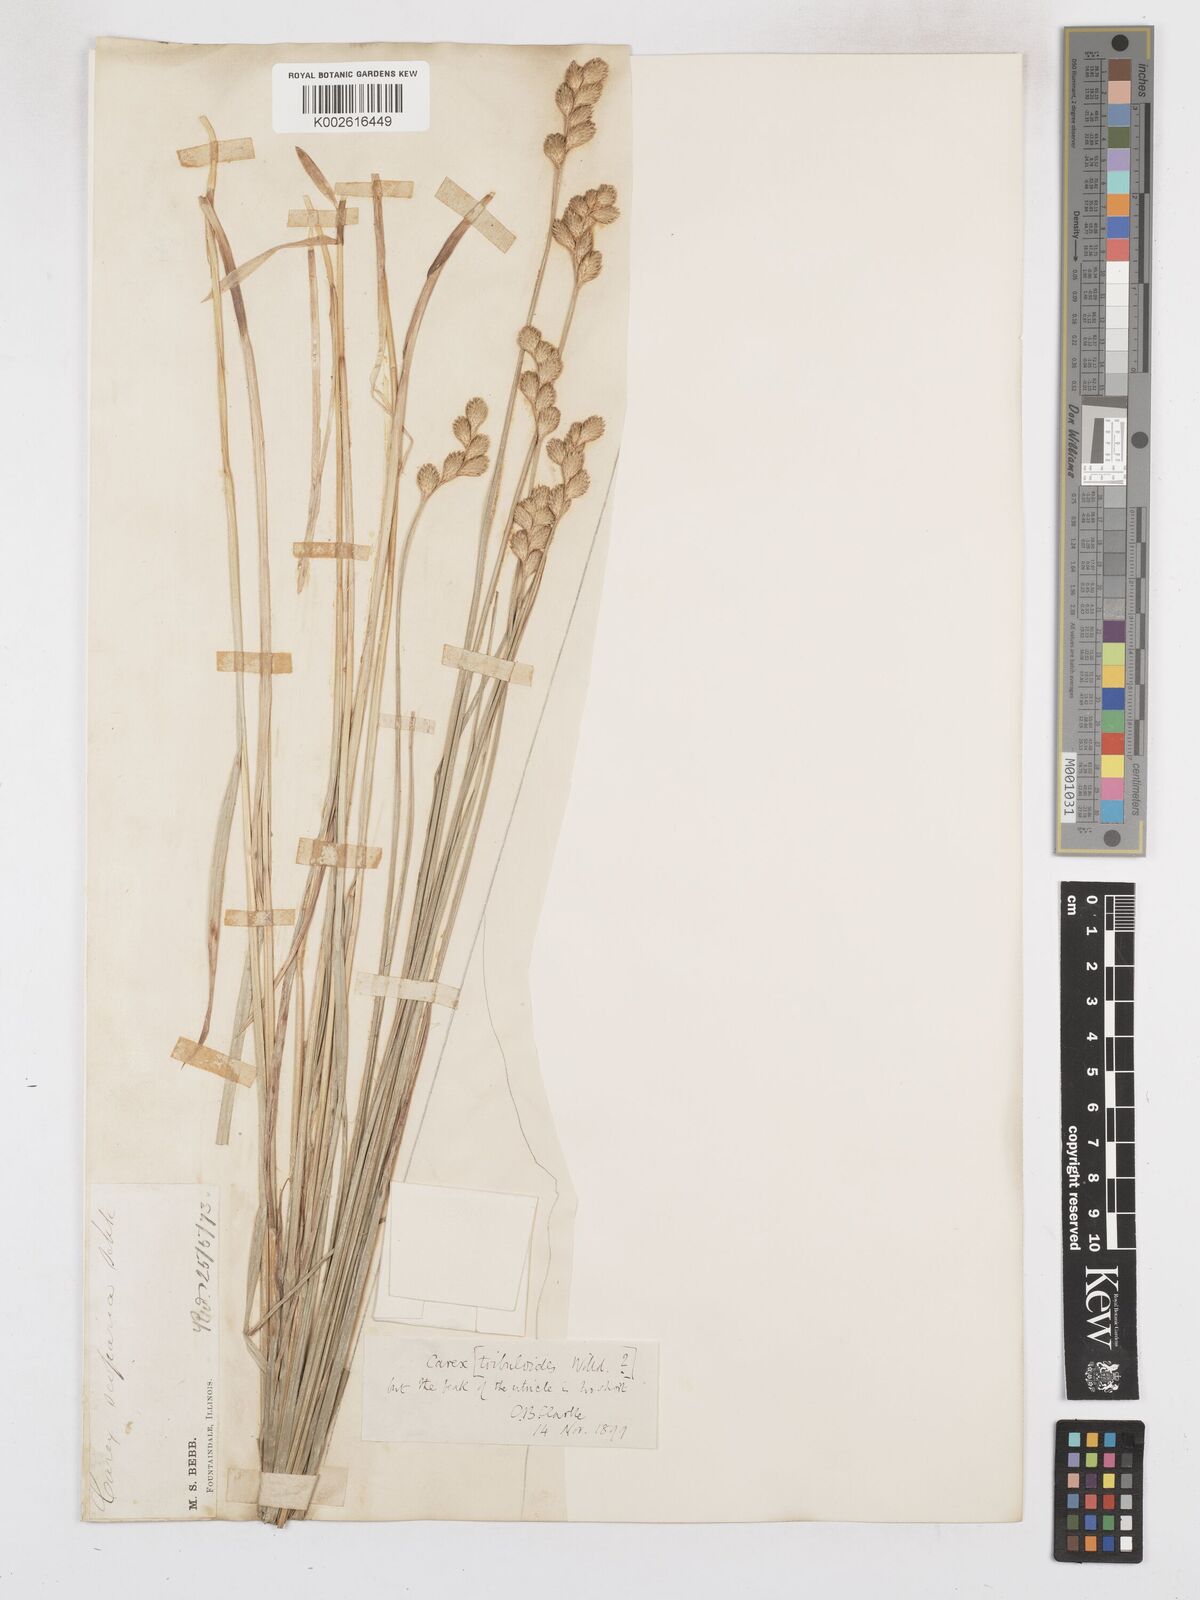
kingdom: Plantae
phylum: Tracheophyta
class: Liliopsida
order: Poales
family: Cyperaceae
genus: Carex
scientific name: Carex tribuloides
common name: Blunt broom sedge
